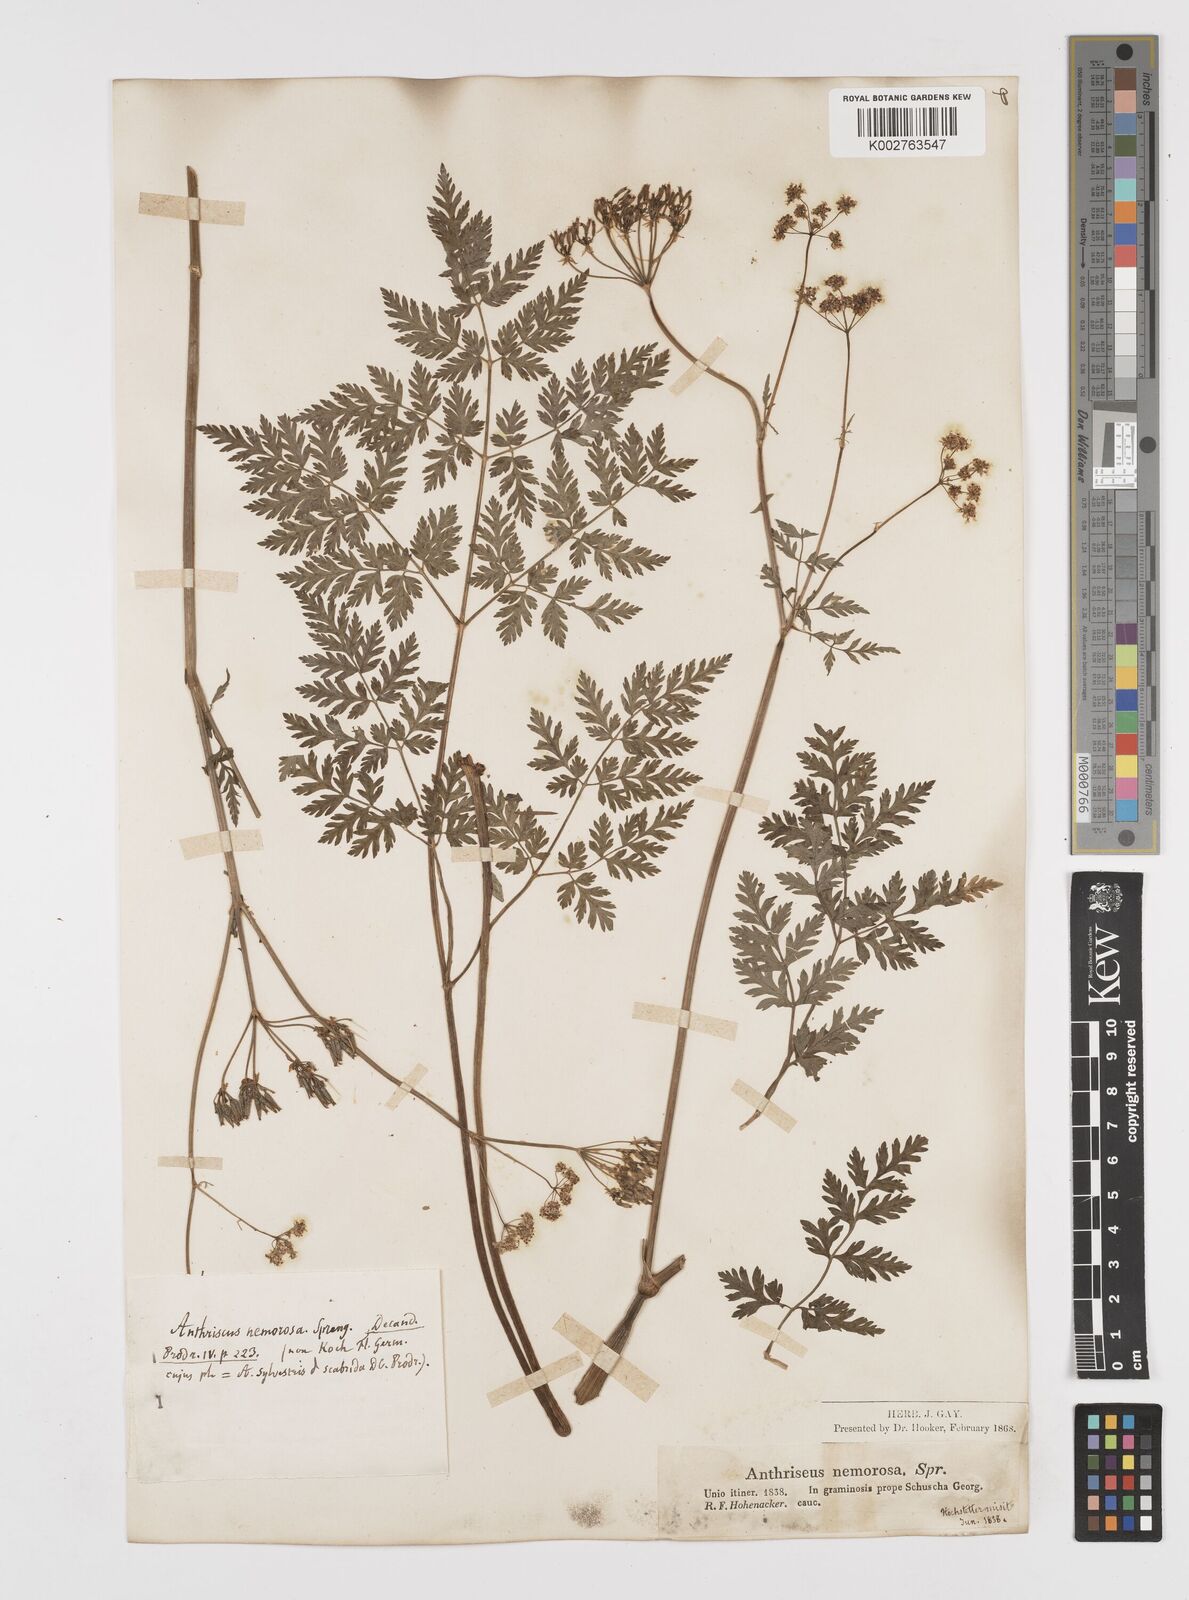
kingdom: Plantae
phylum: Tracheophyta
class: Magnoliopsida
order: Apiales
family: Apiaceae
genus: Anthriscus
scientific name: Anthriscus sylvestris
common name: Cow parsley
